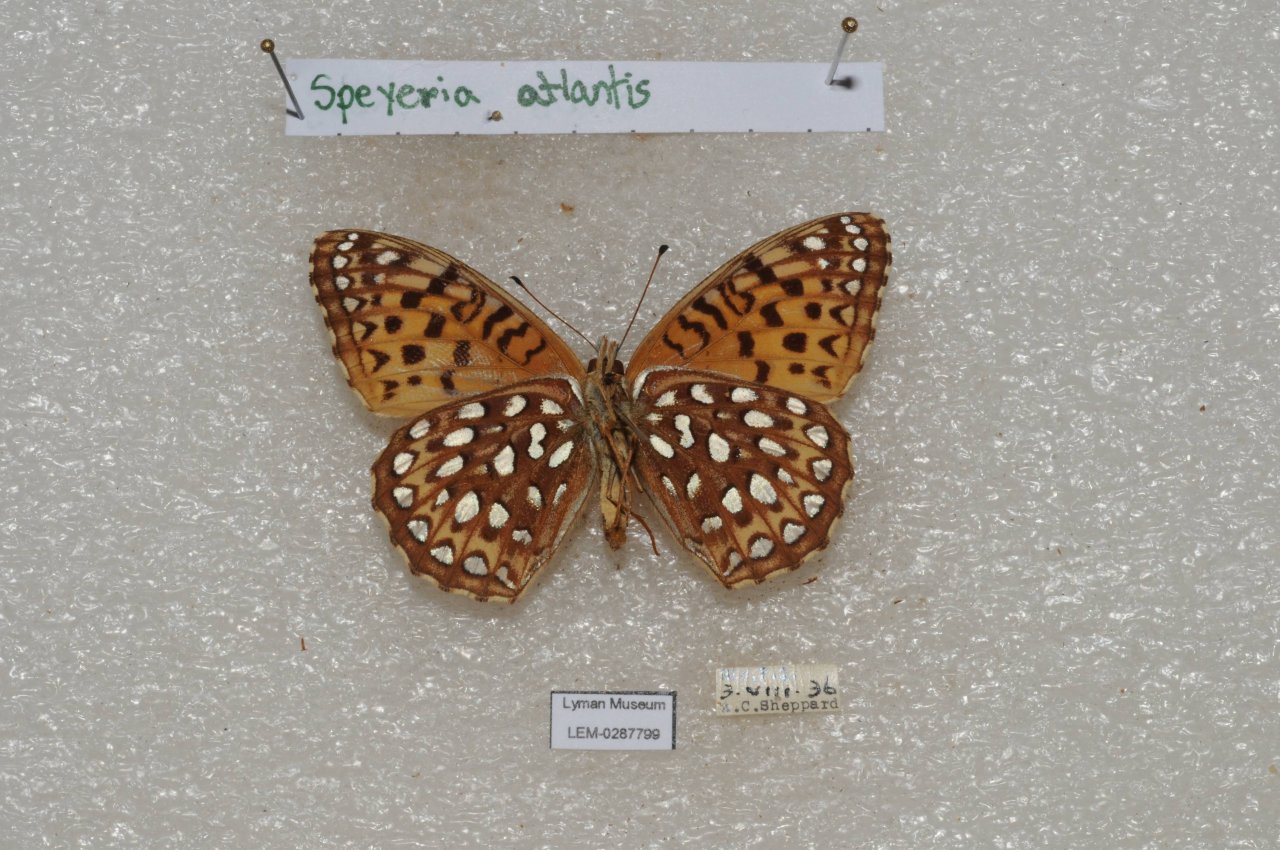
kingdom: Animalia
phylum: Arthropoda
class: Insecta
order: Lepidoptera
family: Nymphalidae
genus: Speyeria
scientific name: Speyeria atlantis
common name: Atlantis Fritillary
